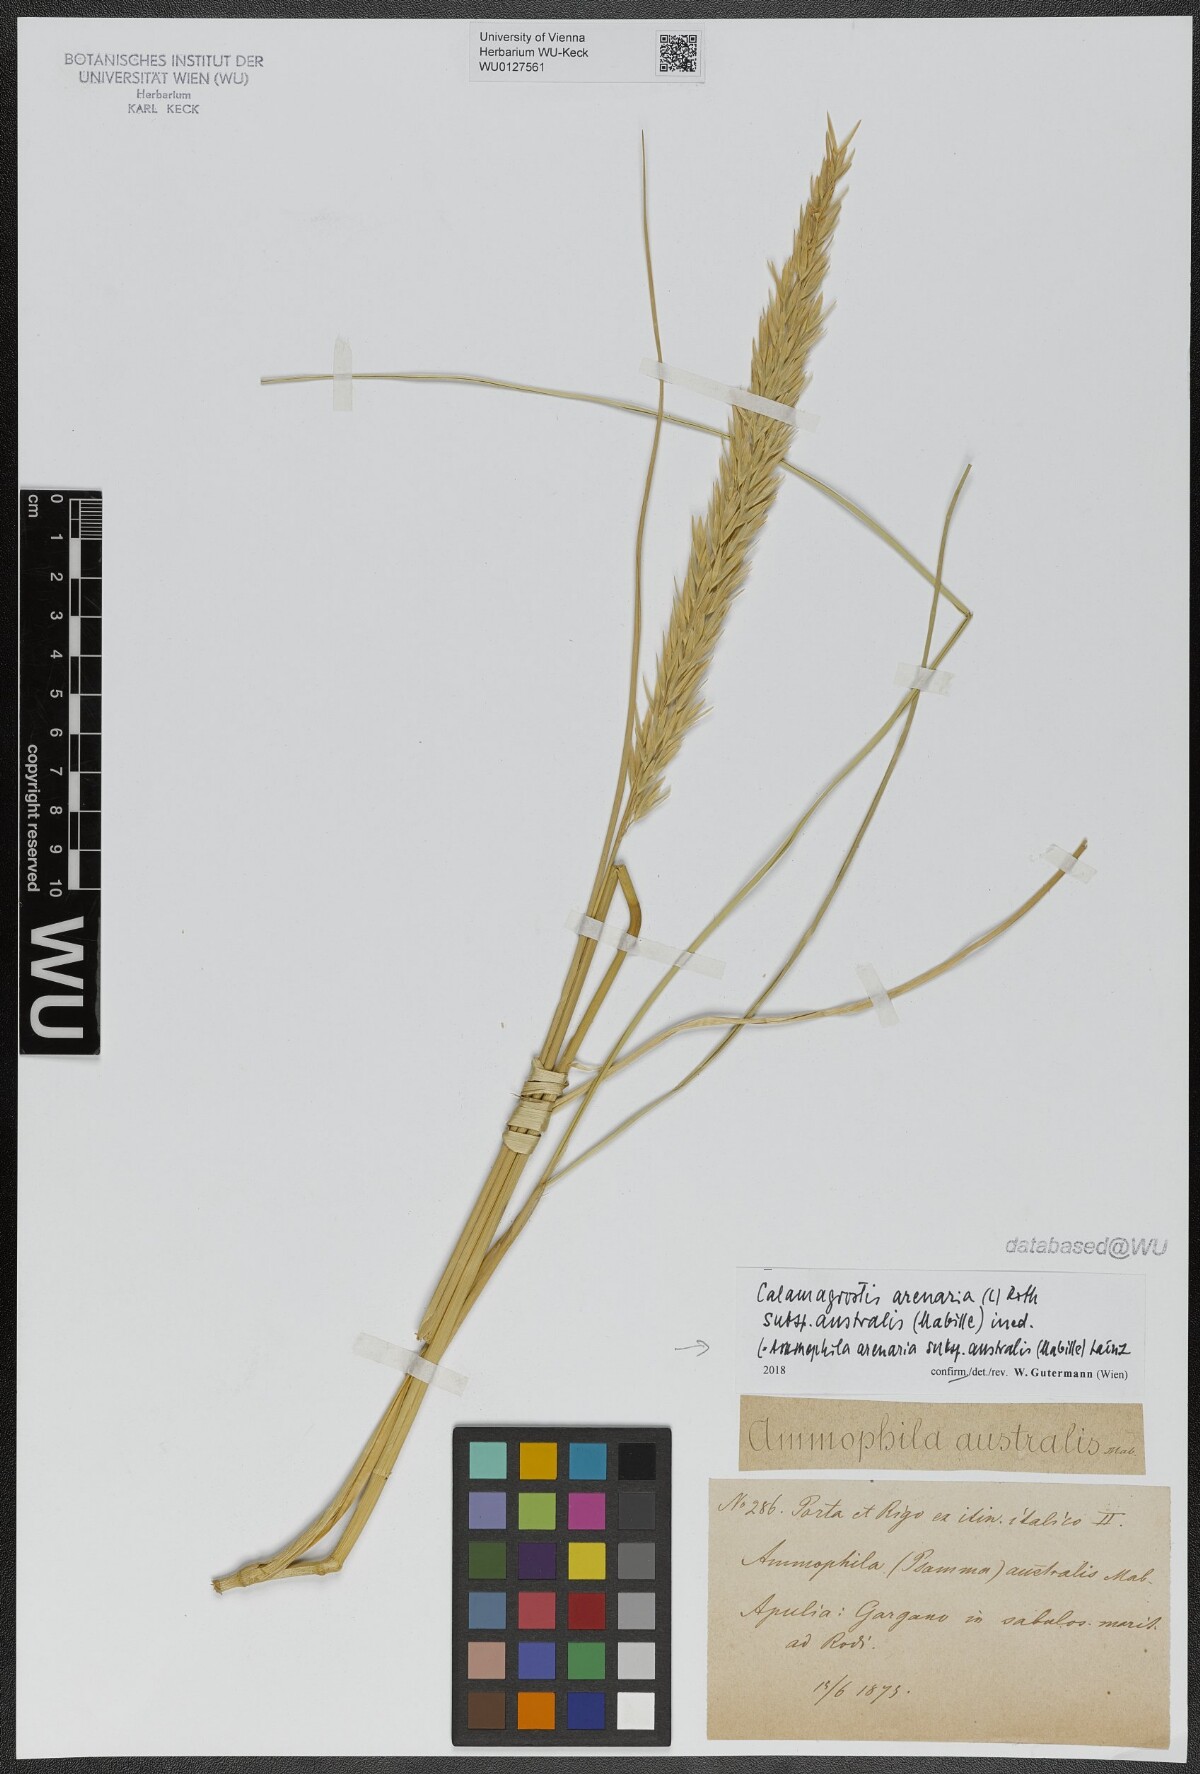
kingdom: Plantae
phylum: Tracheophyta
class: Liliopsida
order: Poales
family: Poaceae
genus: Calamagrostis
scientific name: Calamagrostis arenaria
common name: European beachgrass
